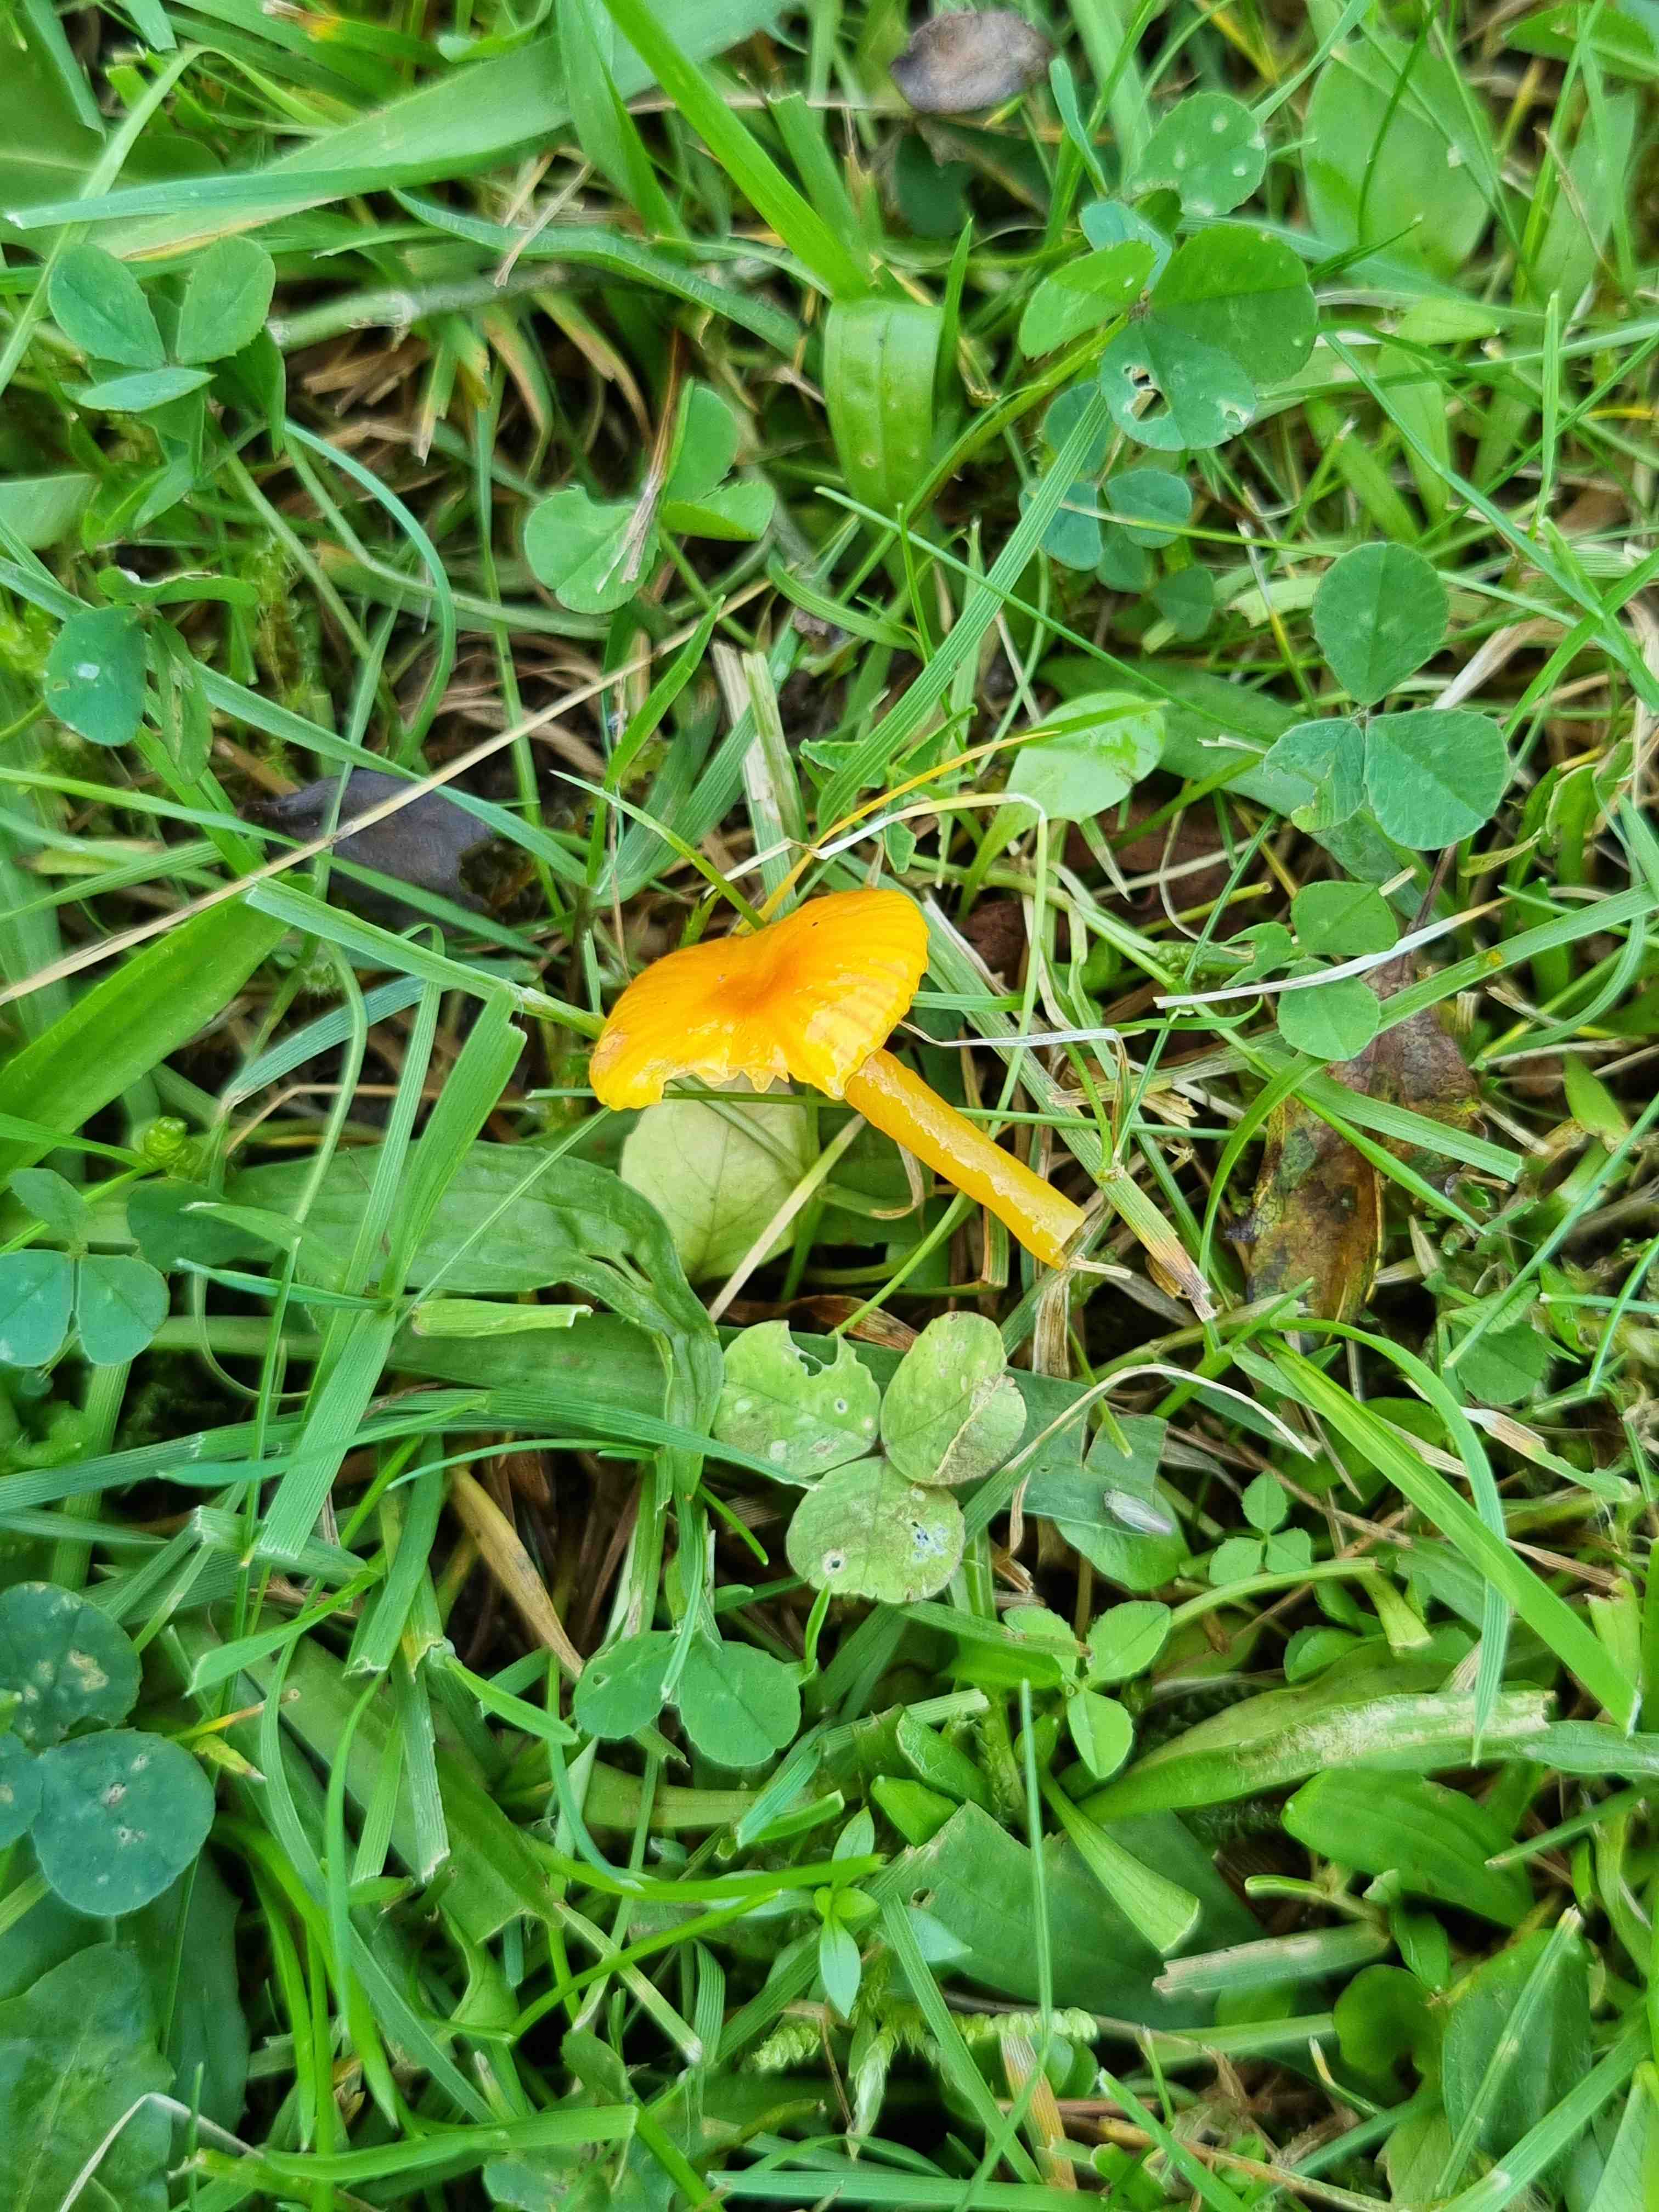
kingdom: Fungi
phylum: Basidiomycota
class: Agaricomycetes
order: Agaricales
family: Hygrophoraceae
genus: Hygrocybe
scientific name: Hygrocybe glutinipes
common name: slimstokket vokshat
